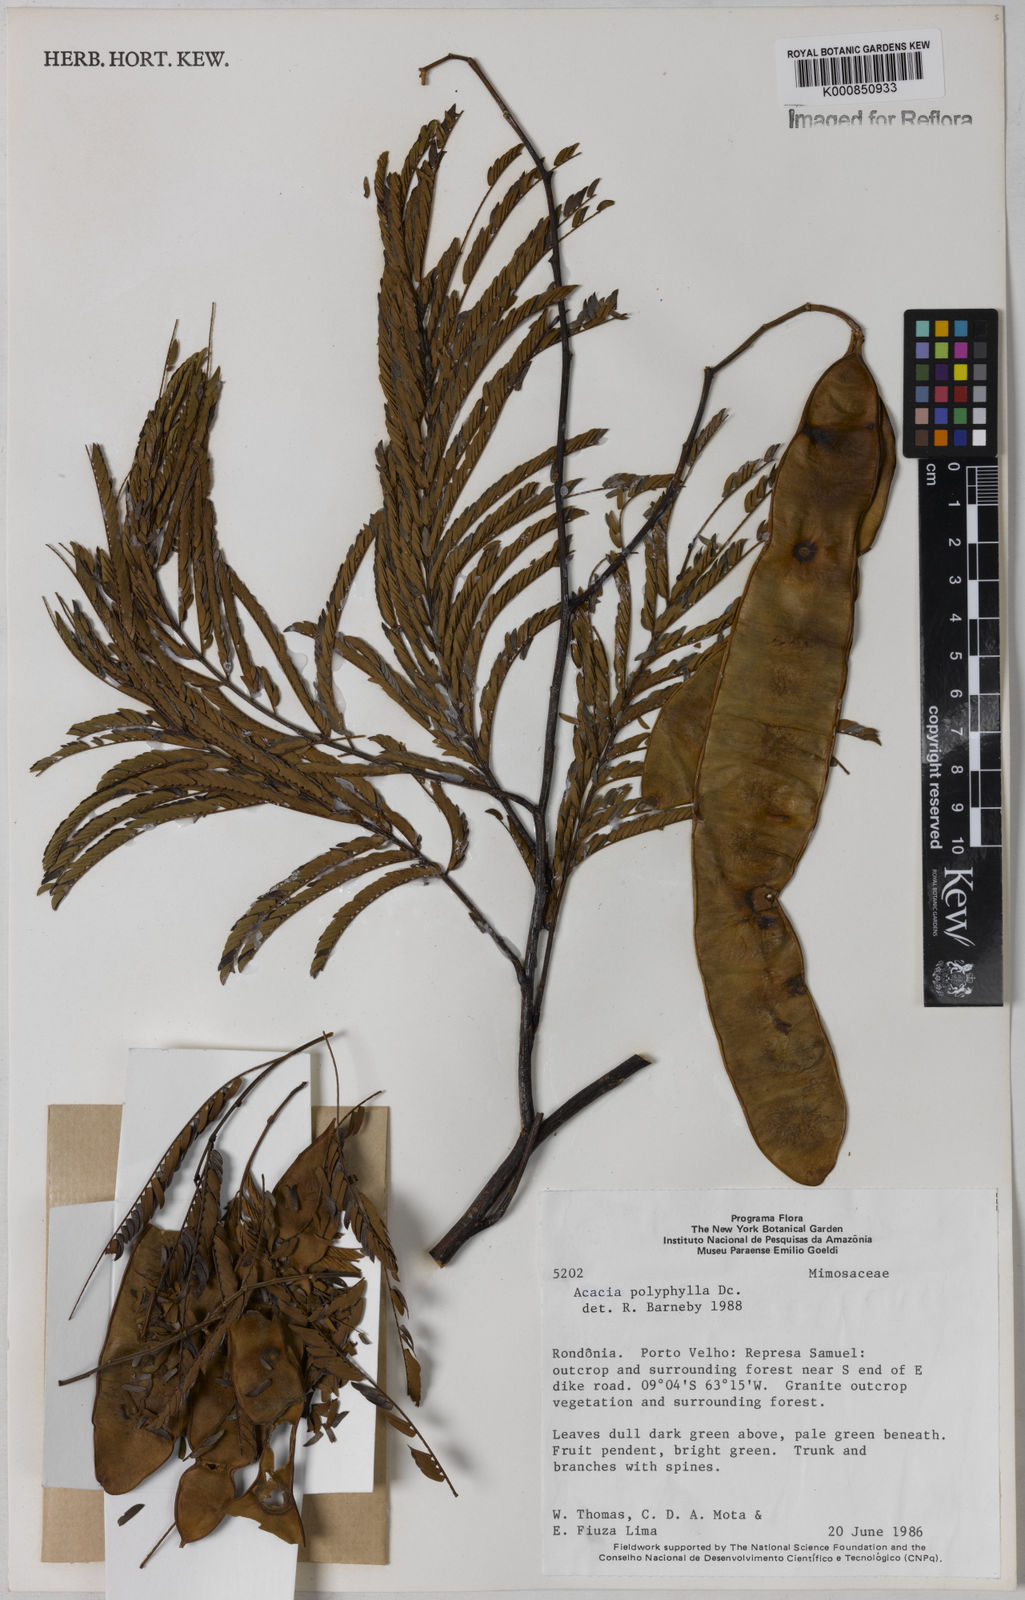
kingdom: Plantae
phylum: Tracheophyta
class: Magnoliopsida
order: Fabales
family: Fabaceae
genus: Senegalia
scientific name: Senegalia polyphylla
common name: White-tamarind
